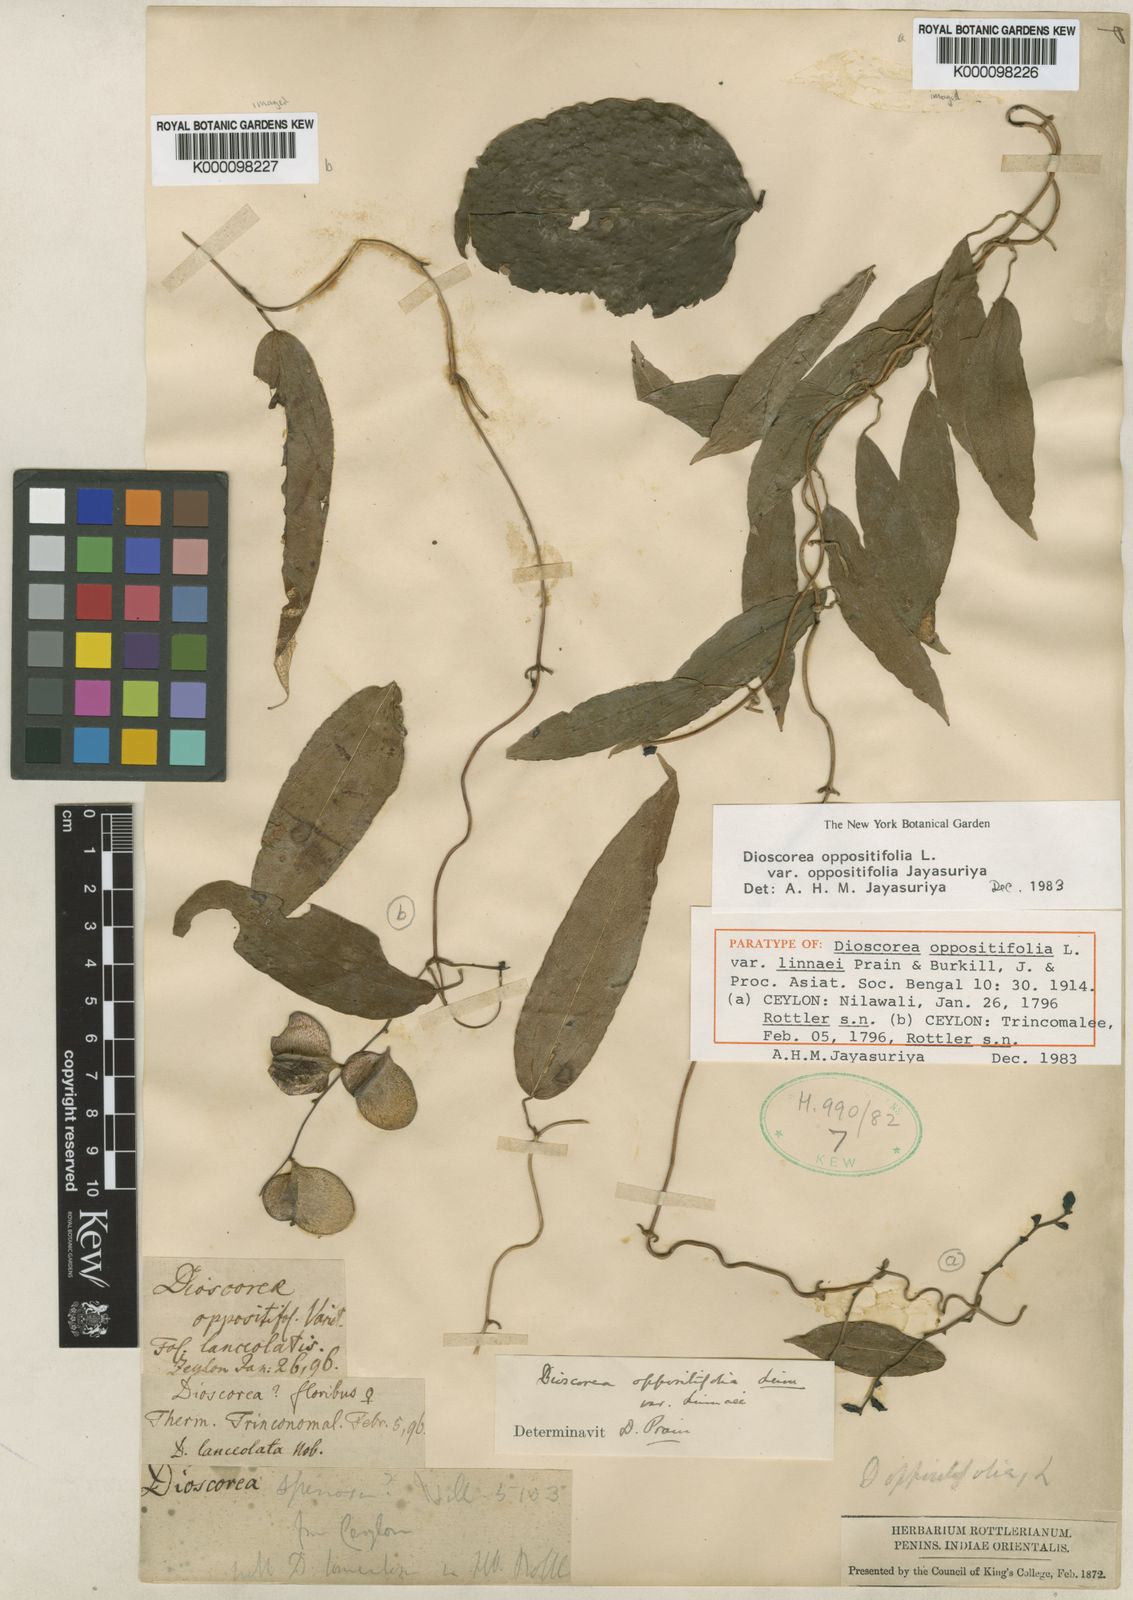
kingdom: Plantae
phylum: Tracheophyta
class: Liliopsida
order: Dioscoreales
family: Dioscoreaceae
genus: Dioscorea
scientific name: Dioscorea oppositifolia
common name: Chinese yam
